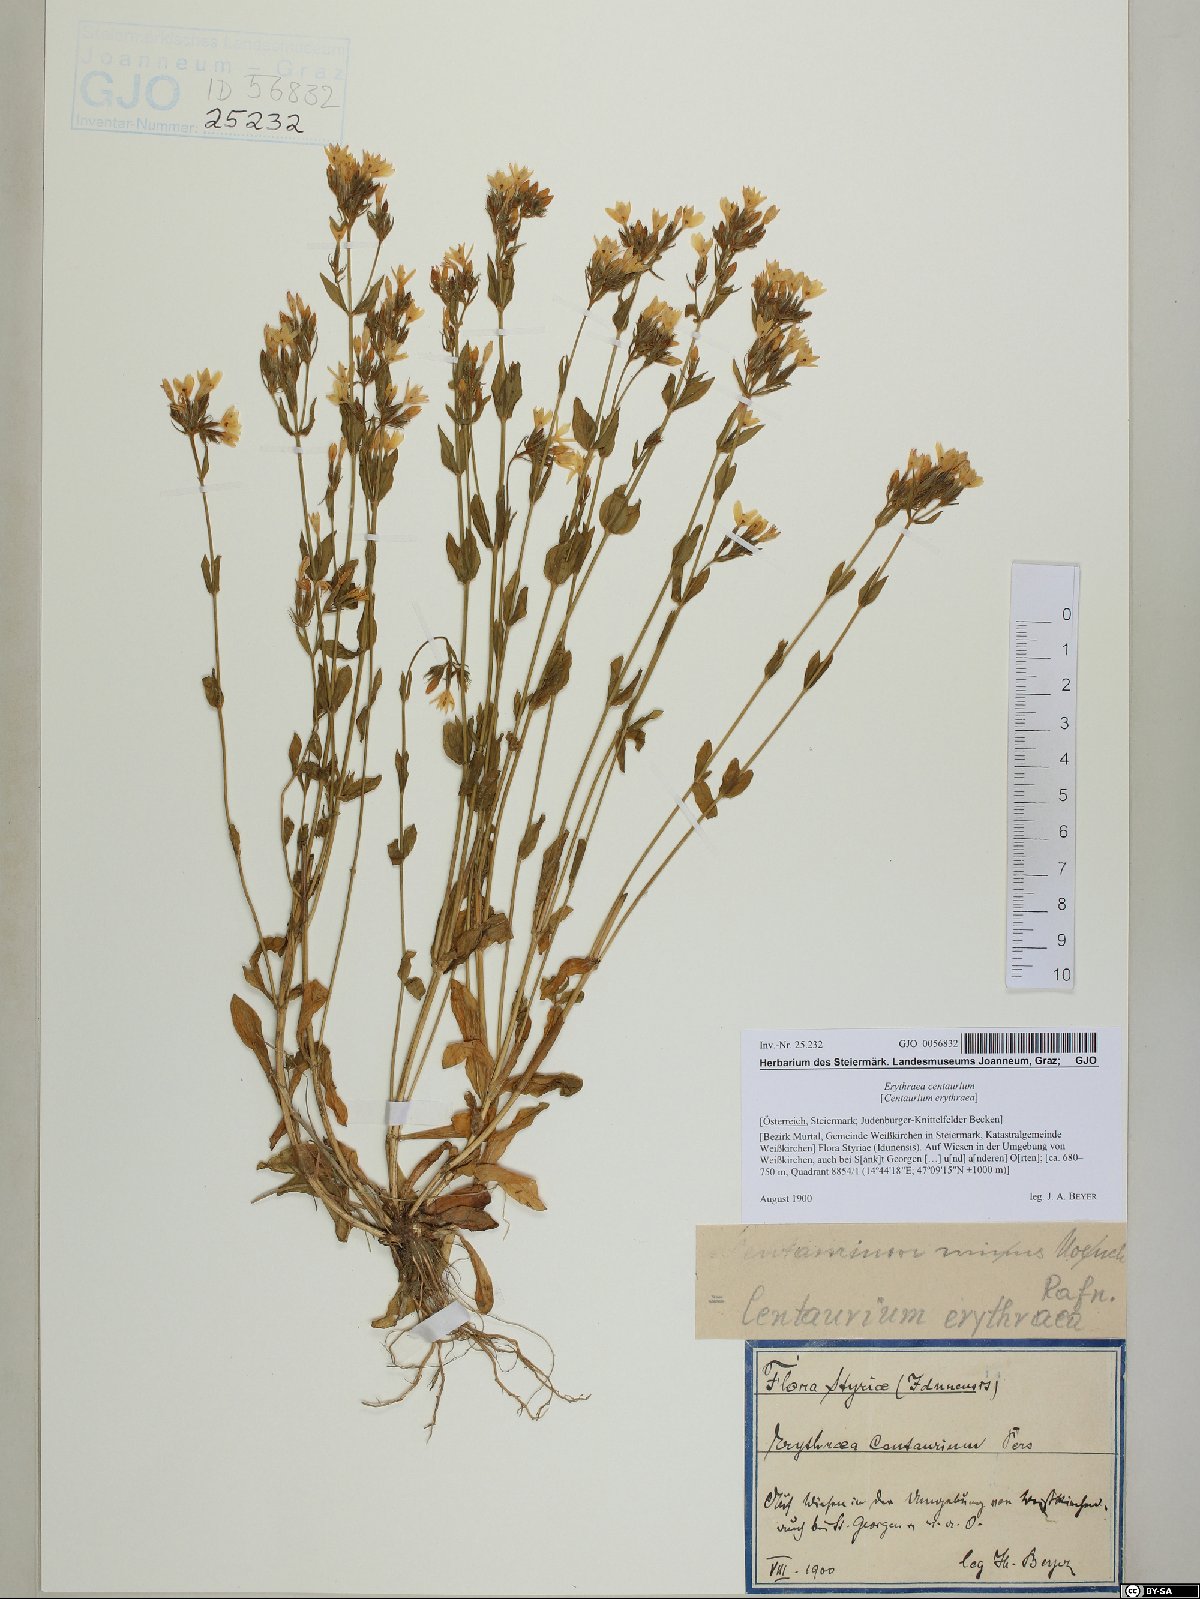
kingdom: Plantae
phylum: Tracheophyta
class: Magnoliopsida
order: Gentianales
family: Gentianaceae
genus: Centaurium
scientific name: Centaurium erythraea
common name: Common centaury
